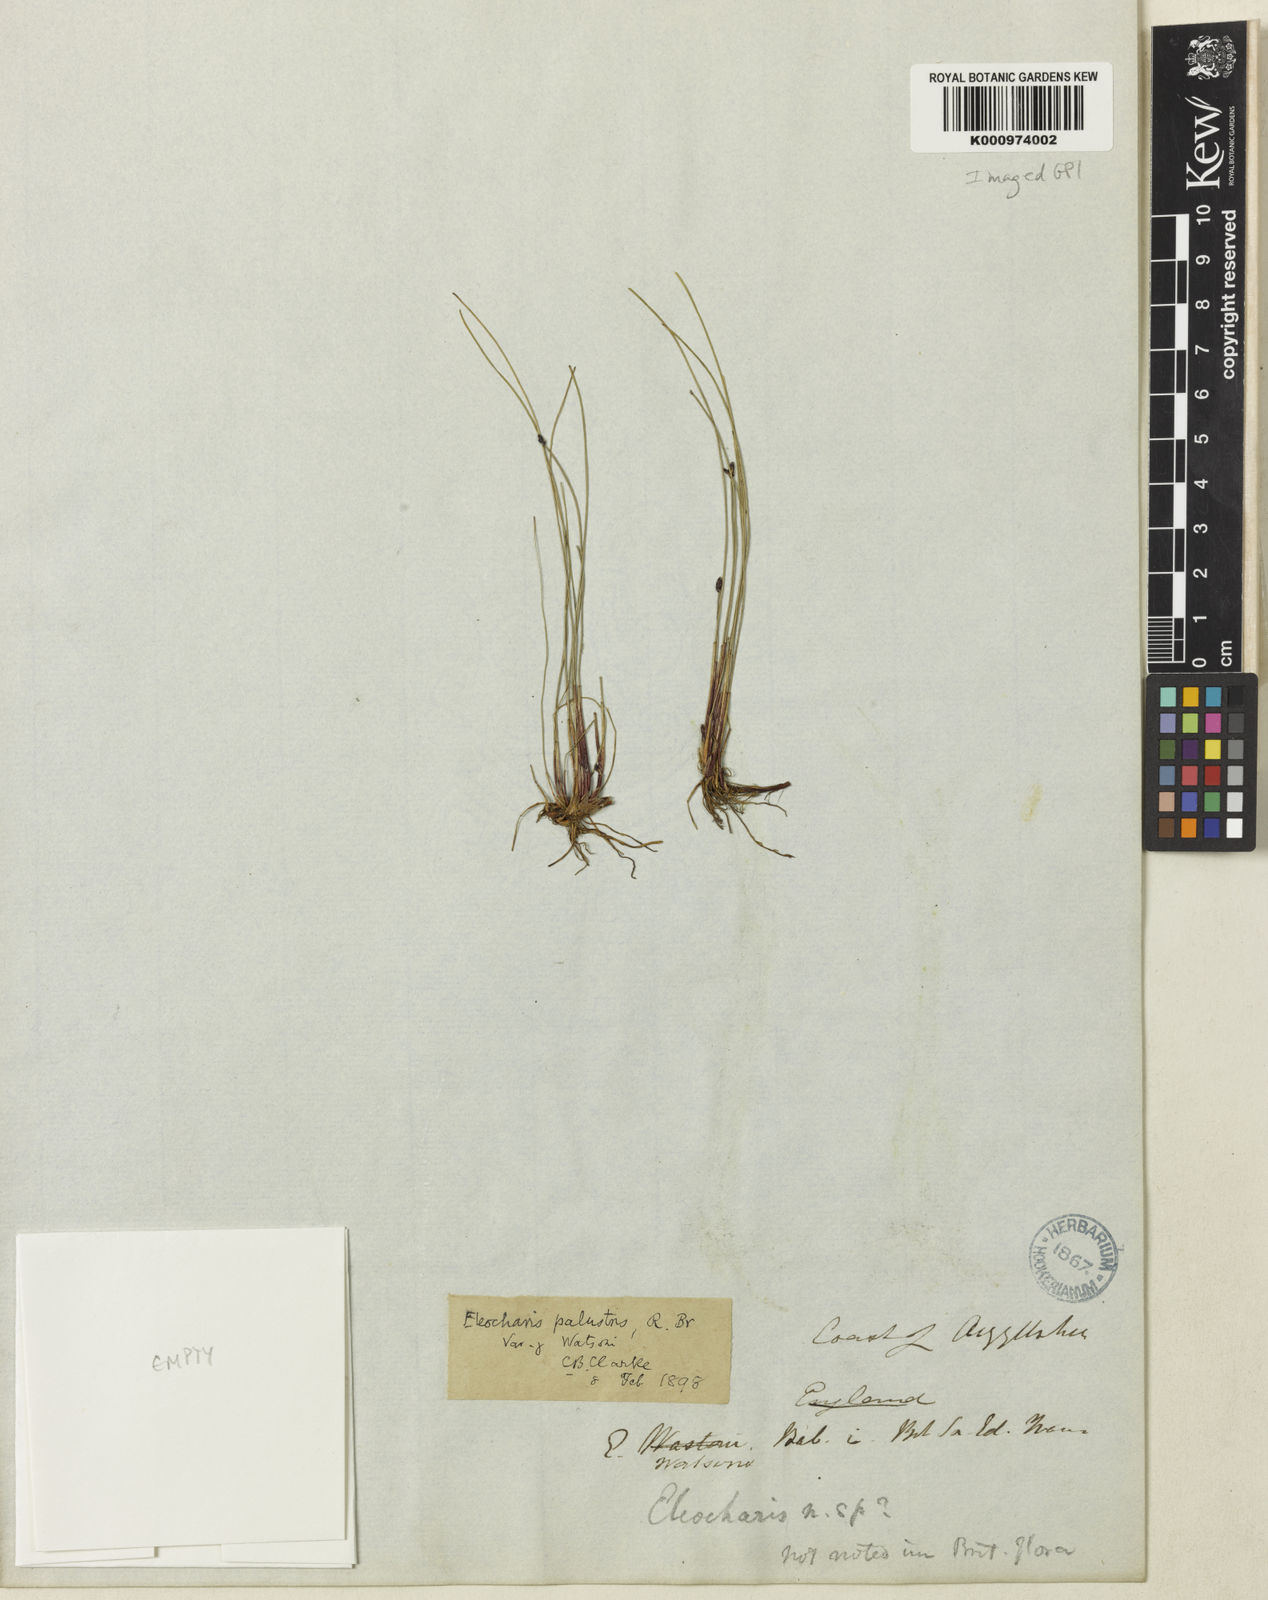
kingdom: Plantae
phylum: Tracheophyta
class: Liliopsida
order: Poales
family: Cyperaceae
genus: Eleocharis
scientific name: Eleocharis uniglumis
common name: Slender spike-rush
